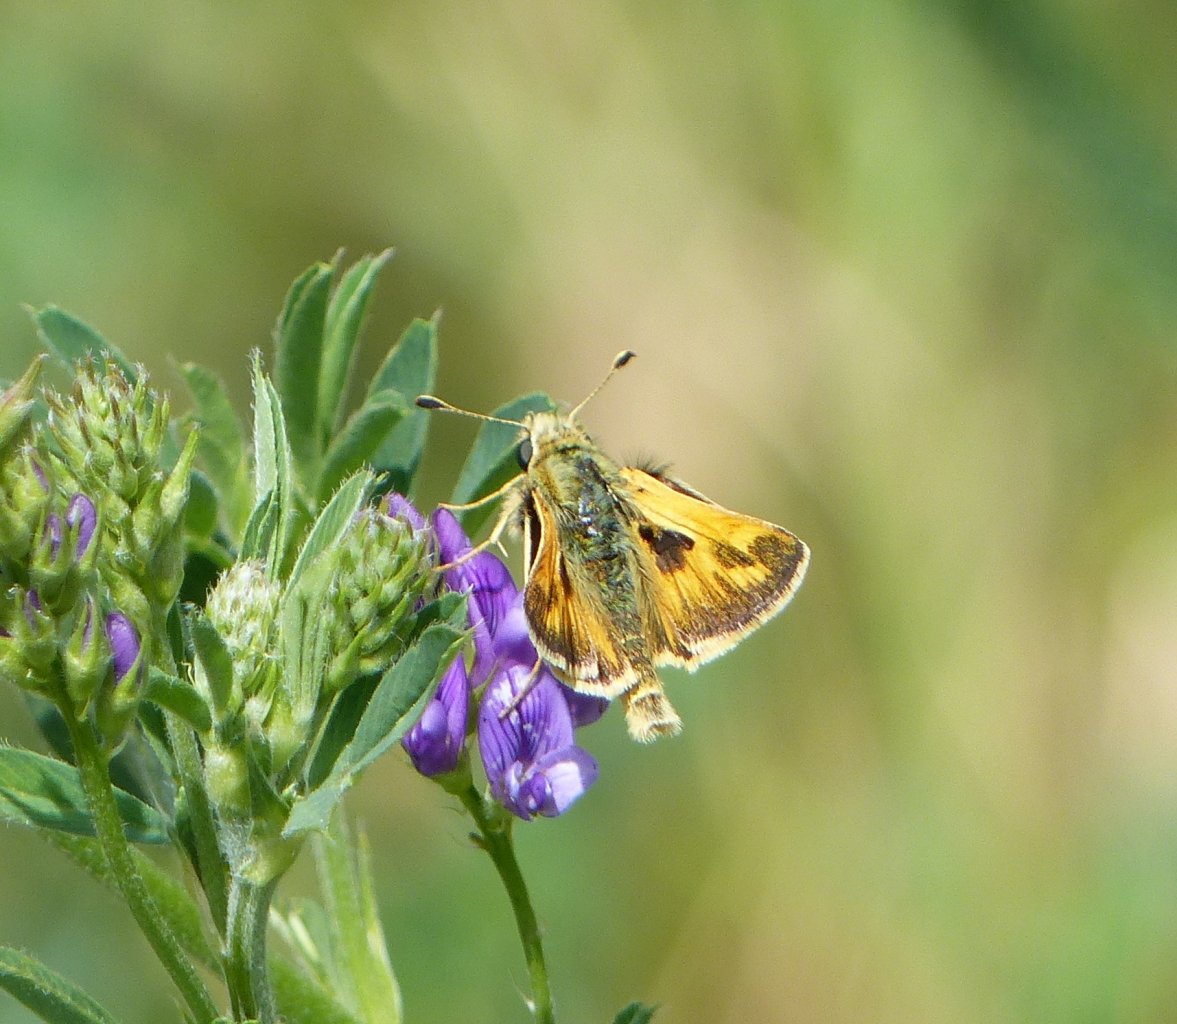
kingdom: Animalia
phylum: Arthropoda
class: Insecta
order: Lepidoptera
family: Hesperiidae
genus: Polites
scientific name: Polites sabuleti
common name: Sandhill Skipper
